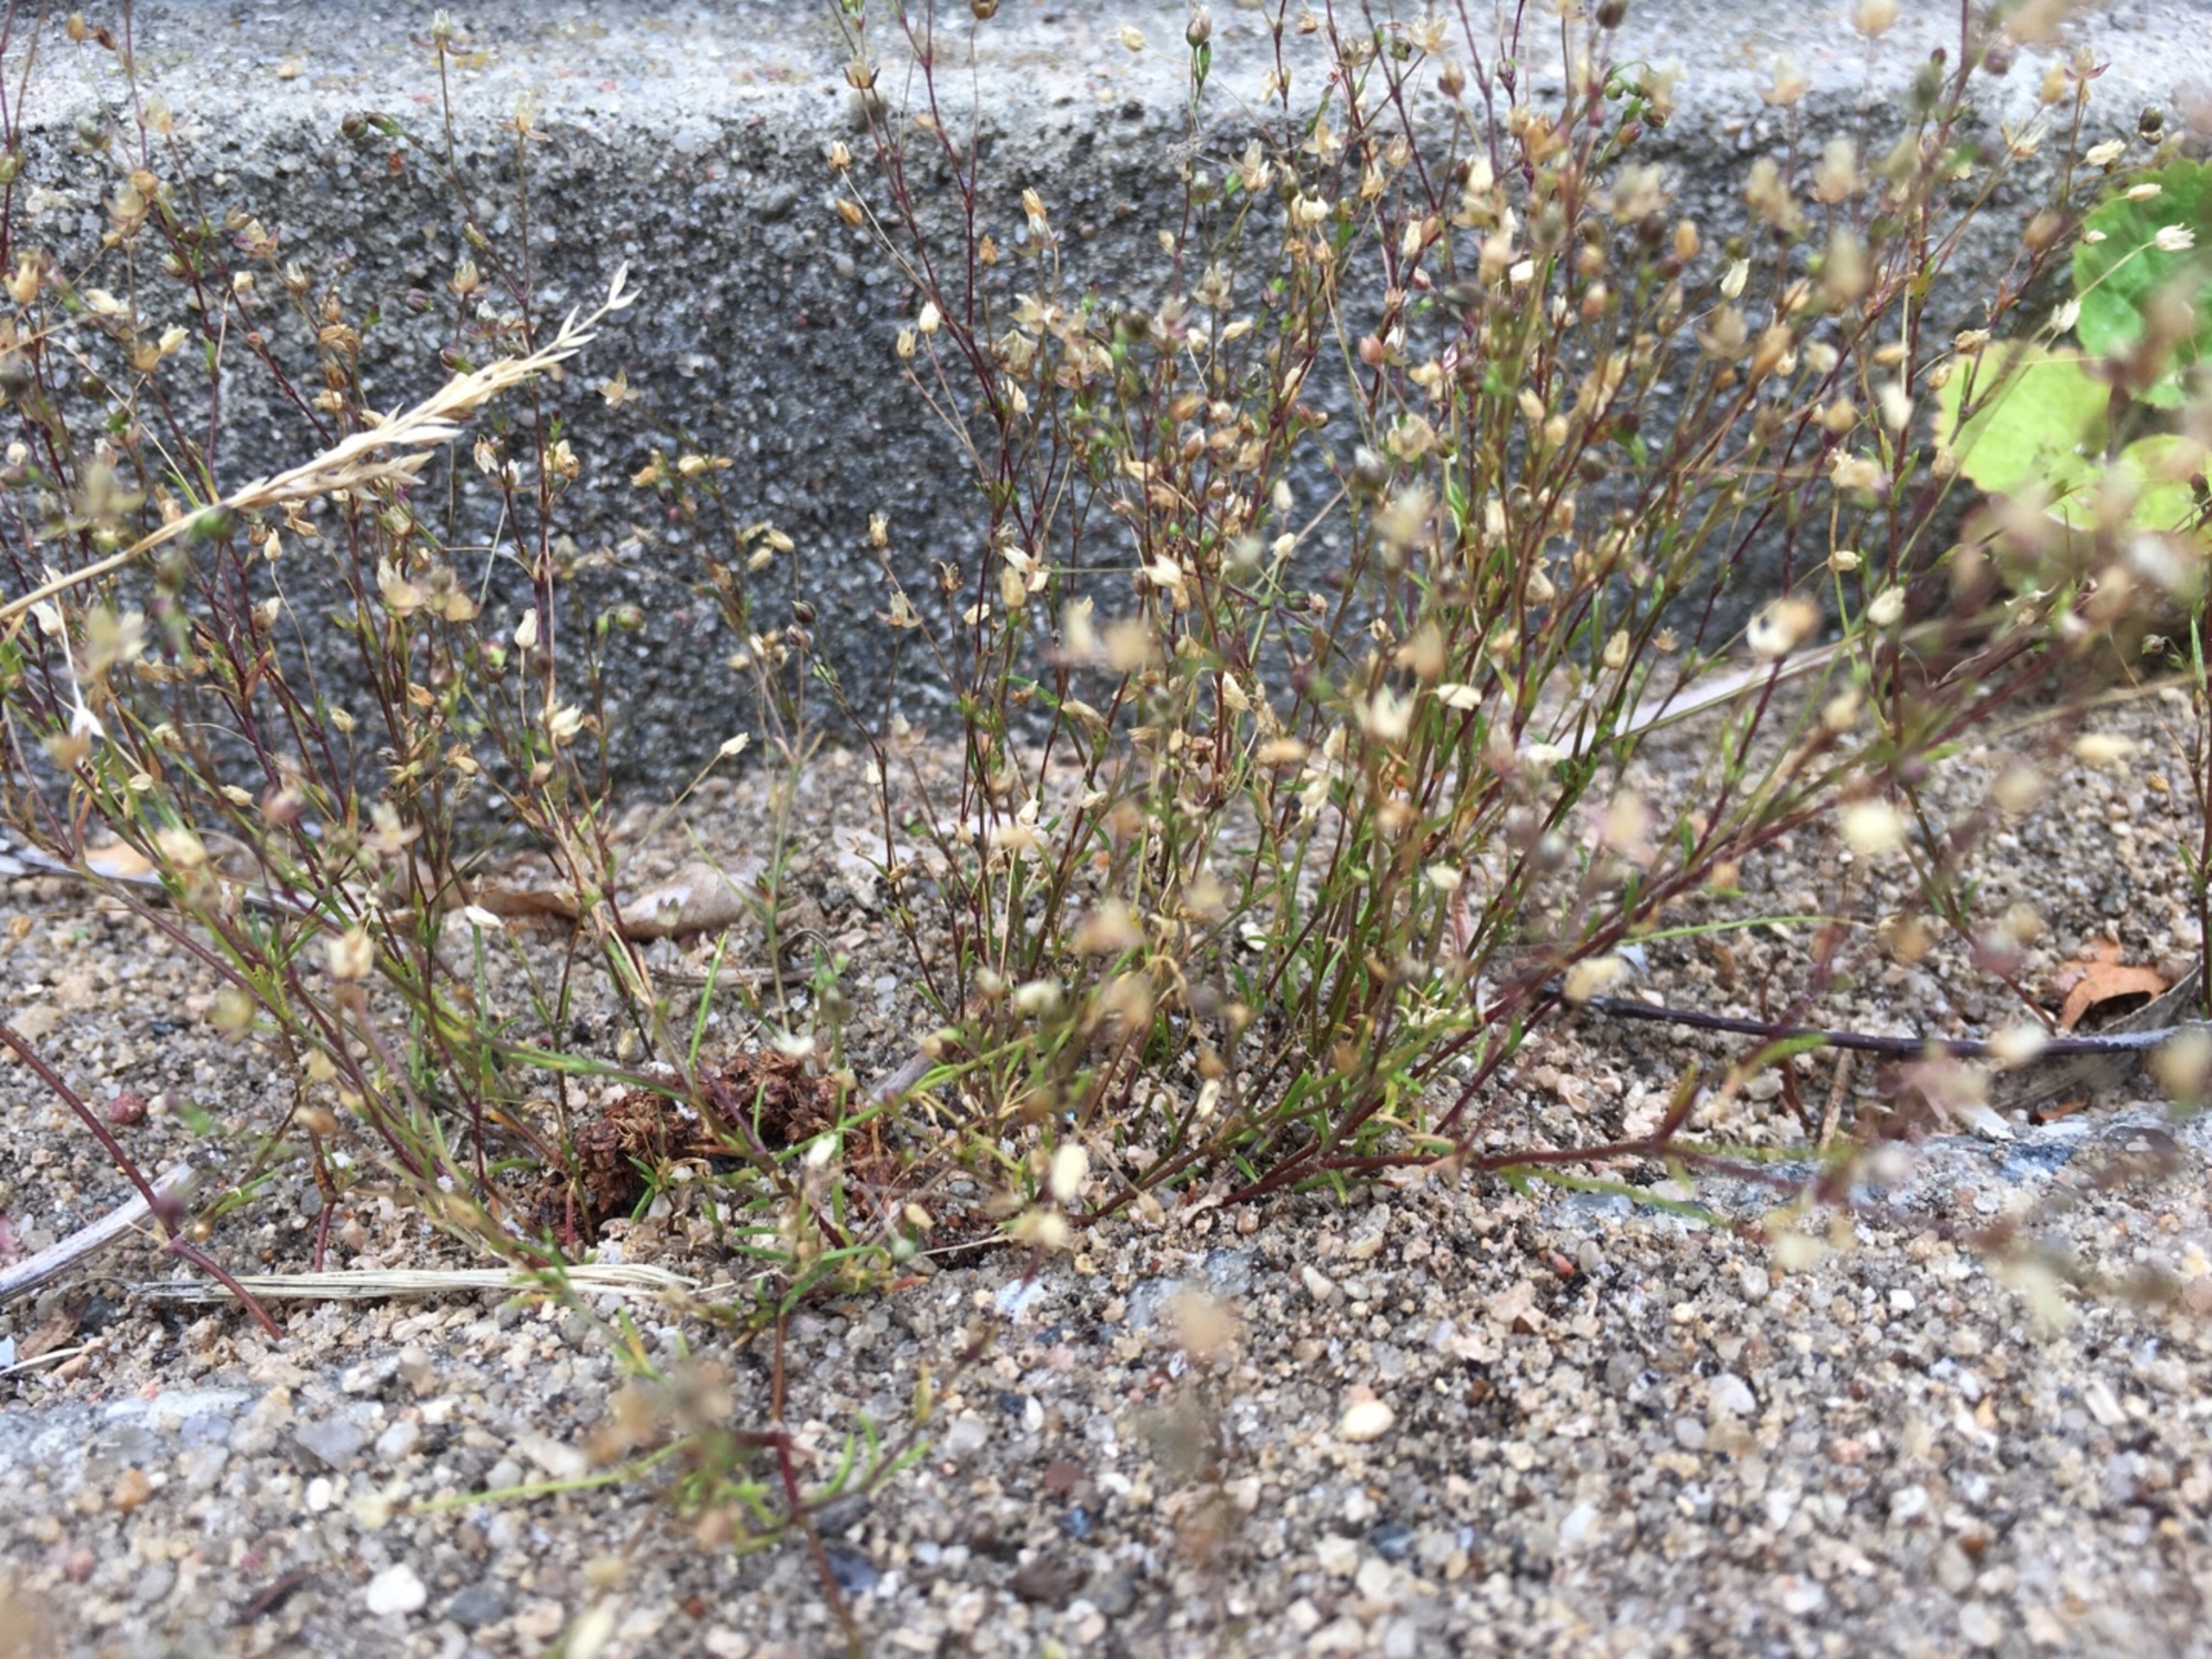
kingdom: Plantae
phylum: Tracheophyta
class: Magnoliopsida
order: Caryophyllales
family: Caryophyllaceae
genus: Sagina
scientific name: Sagina micropetala
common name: Håret firling
